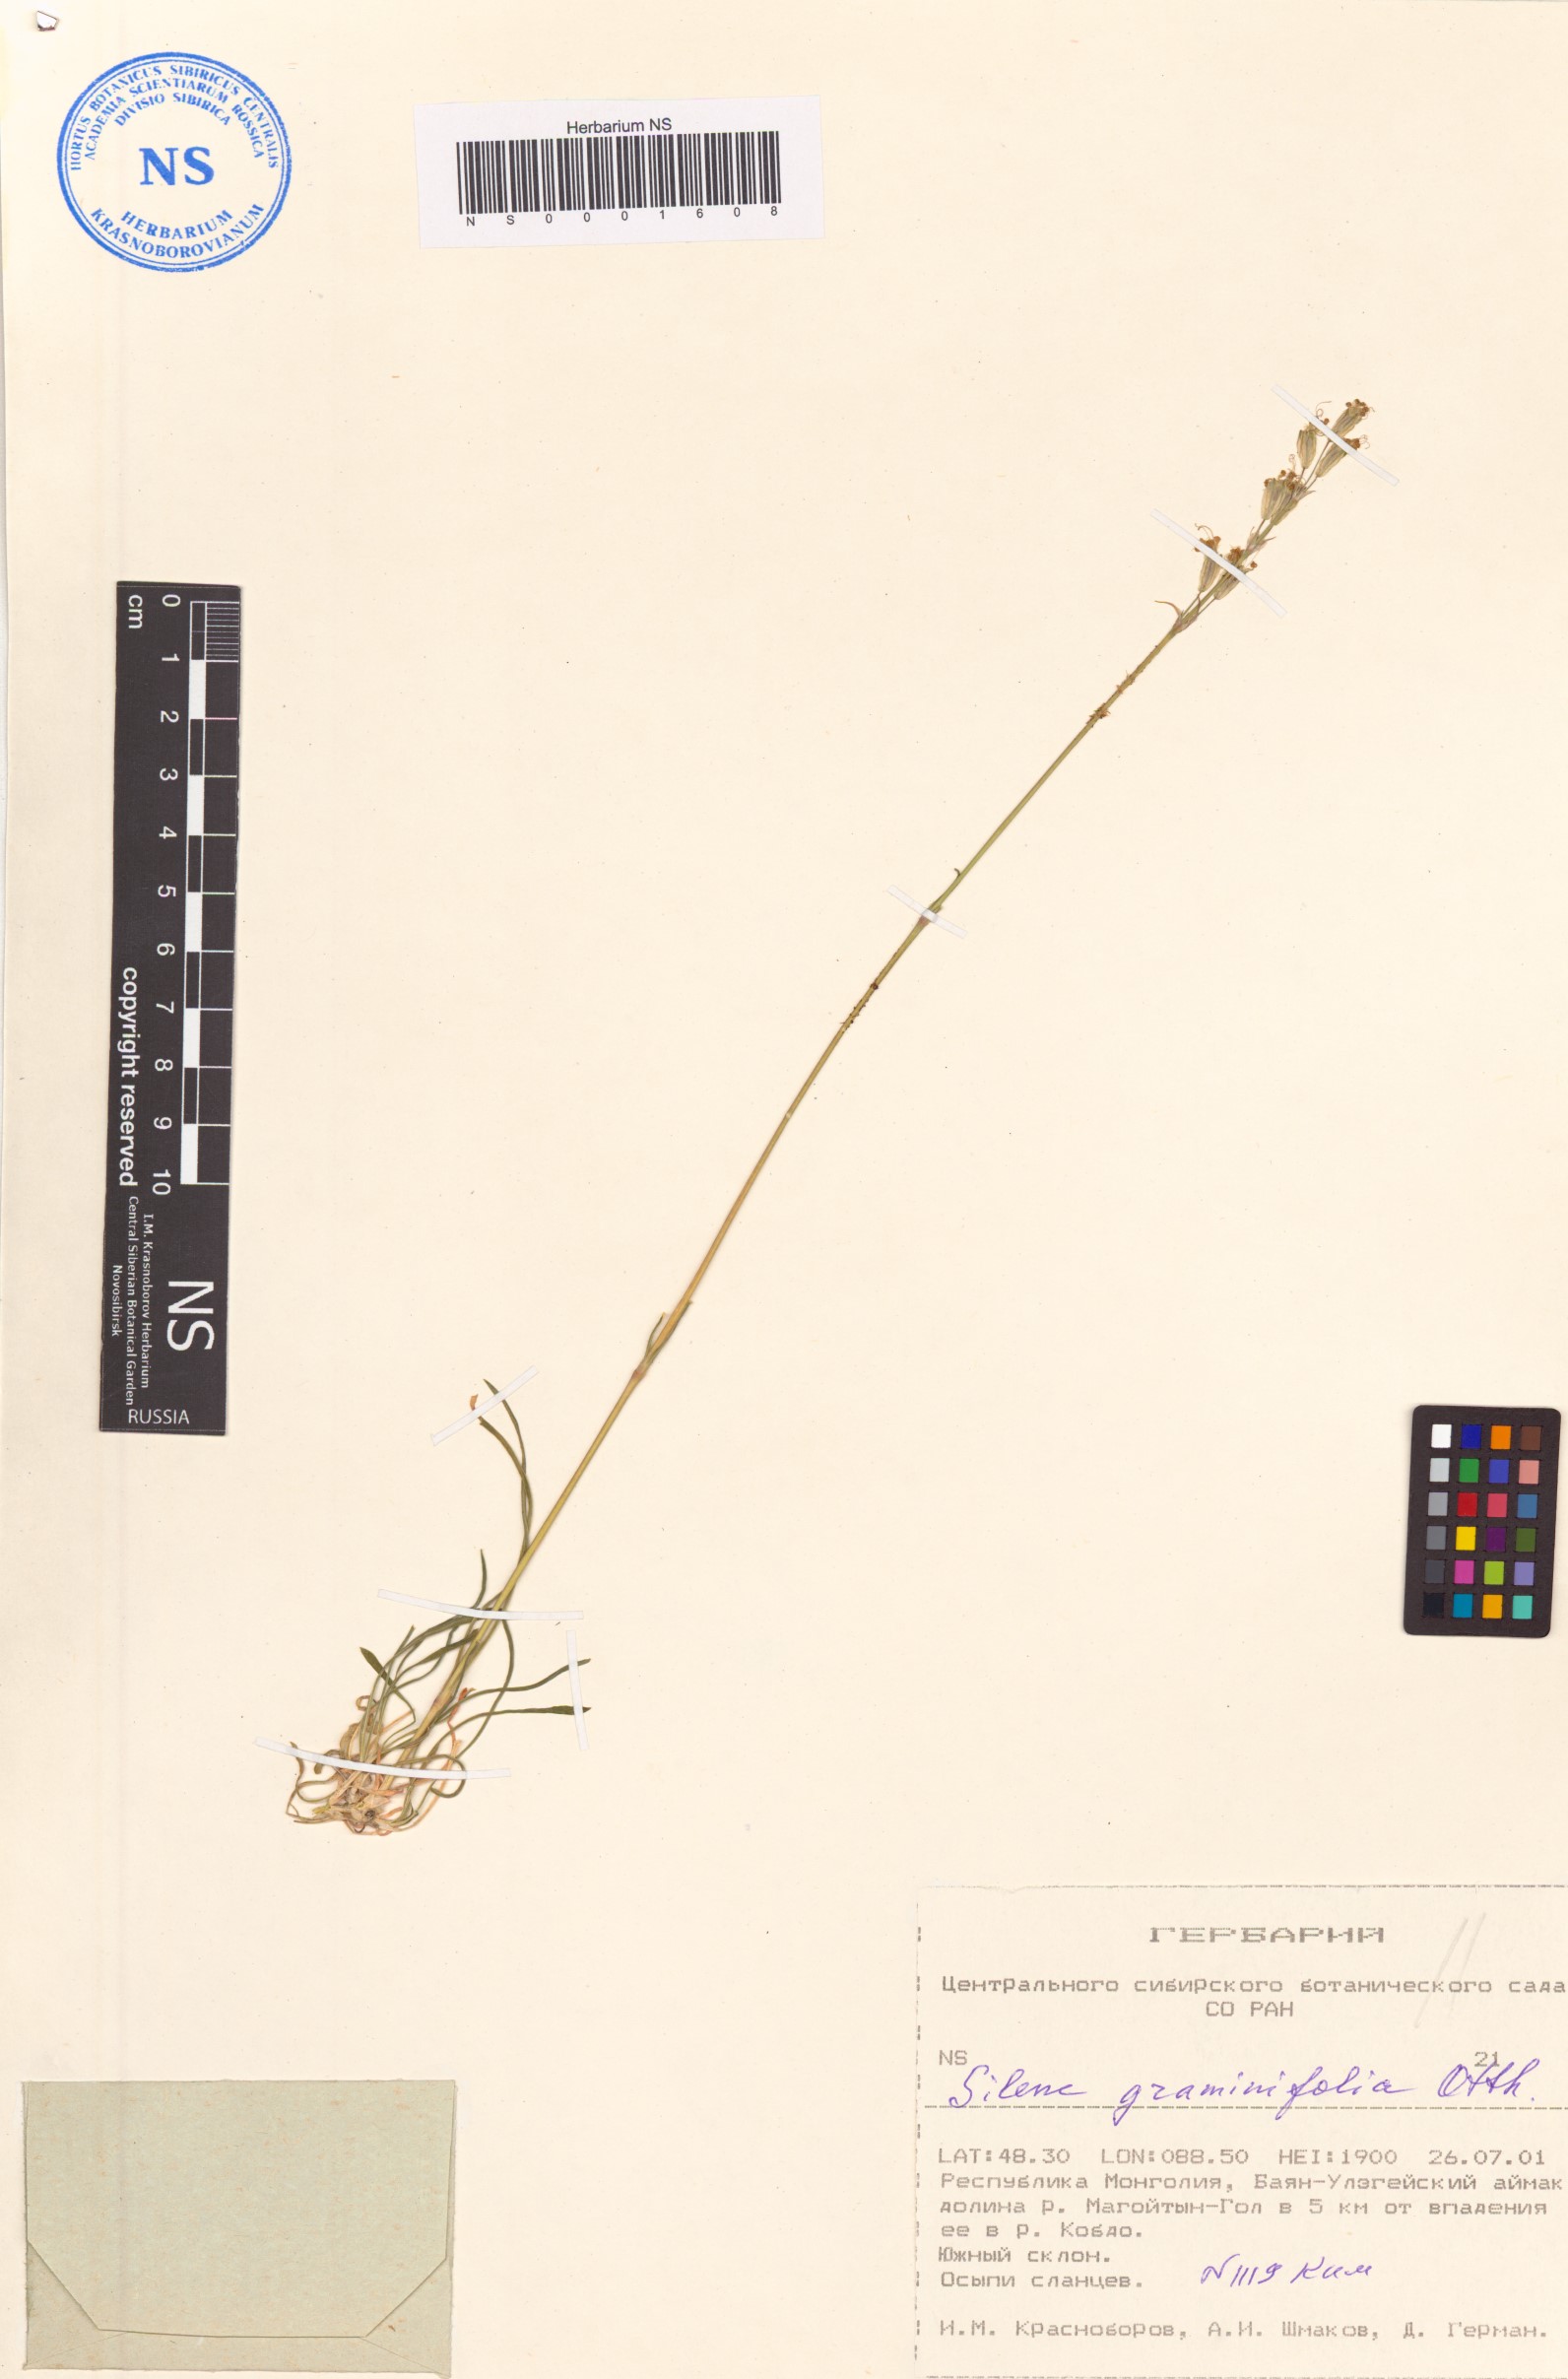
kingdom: Plantae
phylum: Tracheophyta
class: Magnoliopsida
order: Caryophyllales
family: Caryophyllaceae
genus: Silene
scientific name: Silene graminifolia
